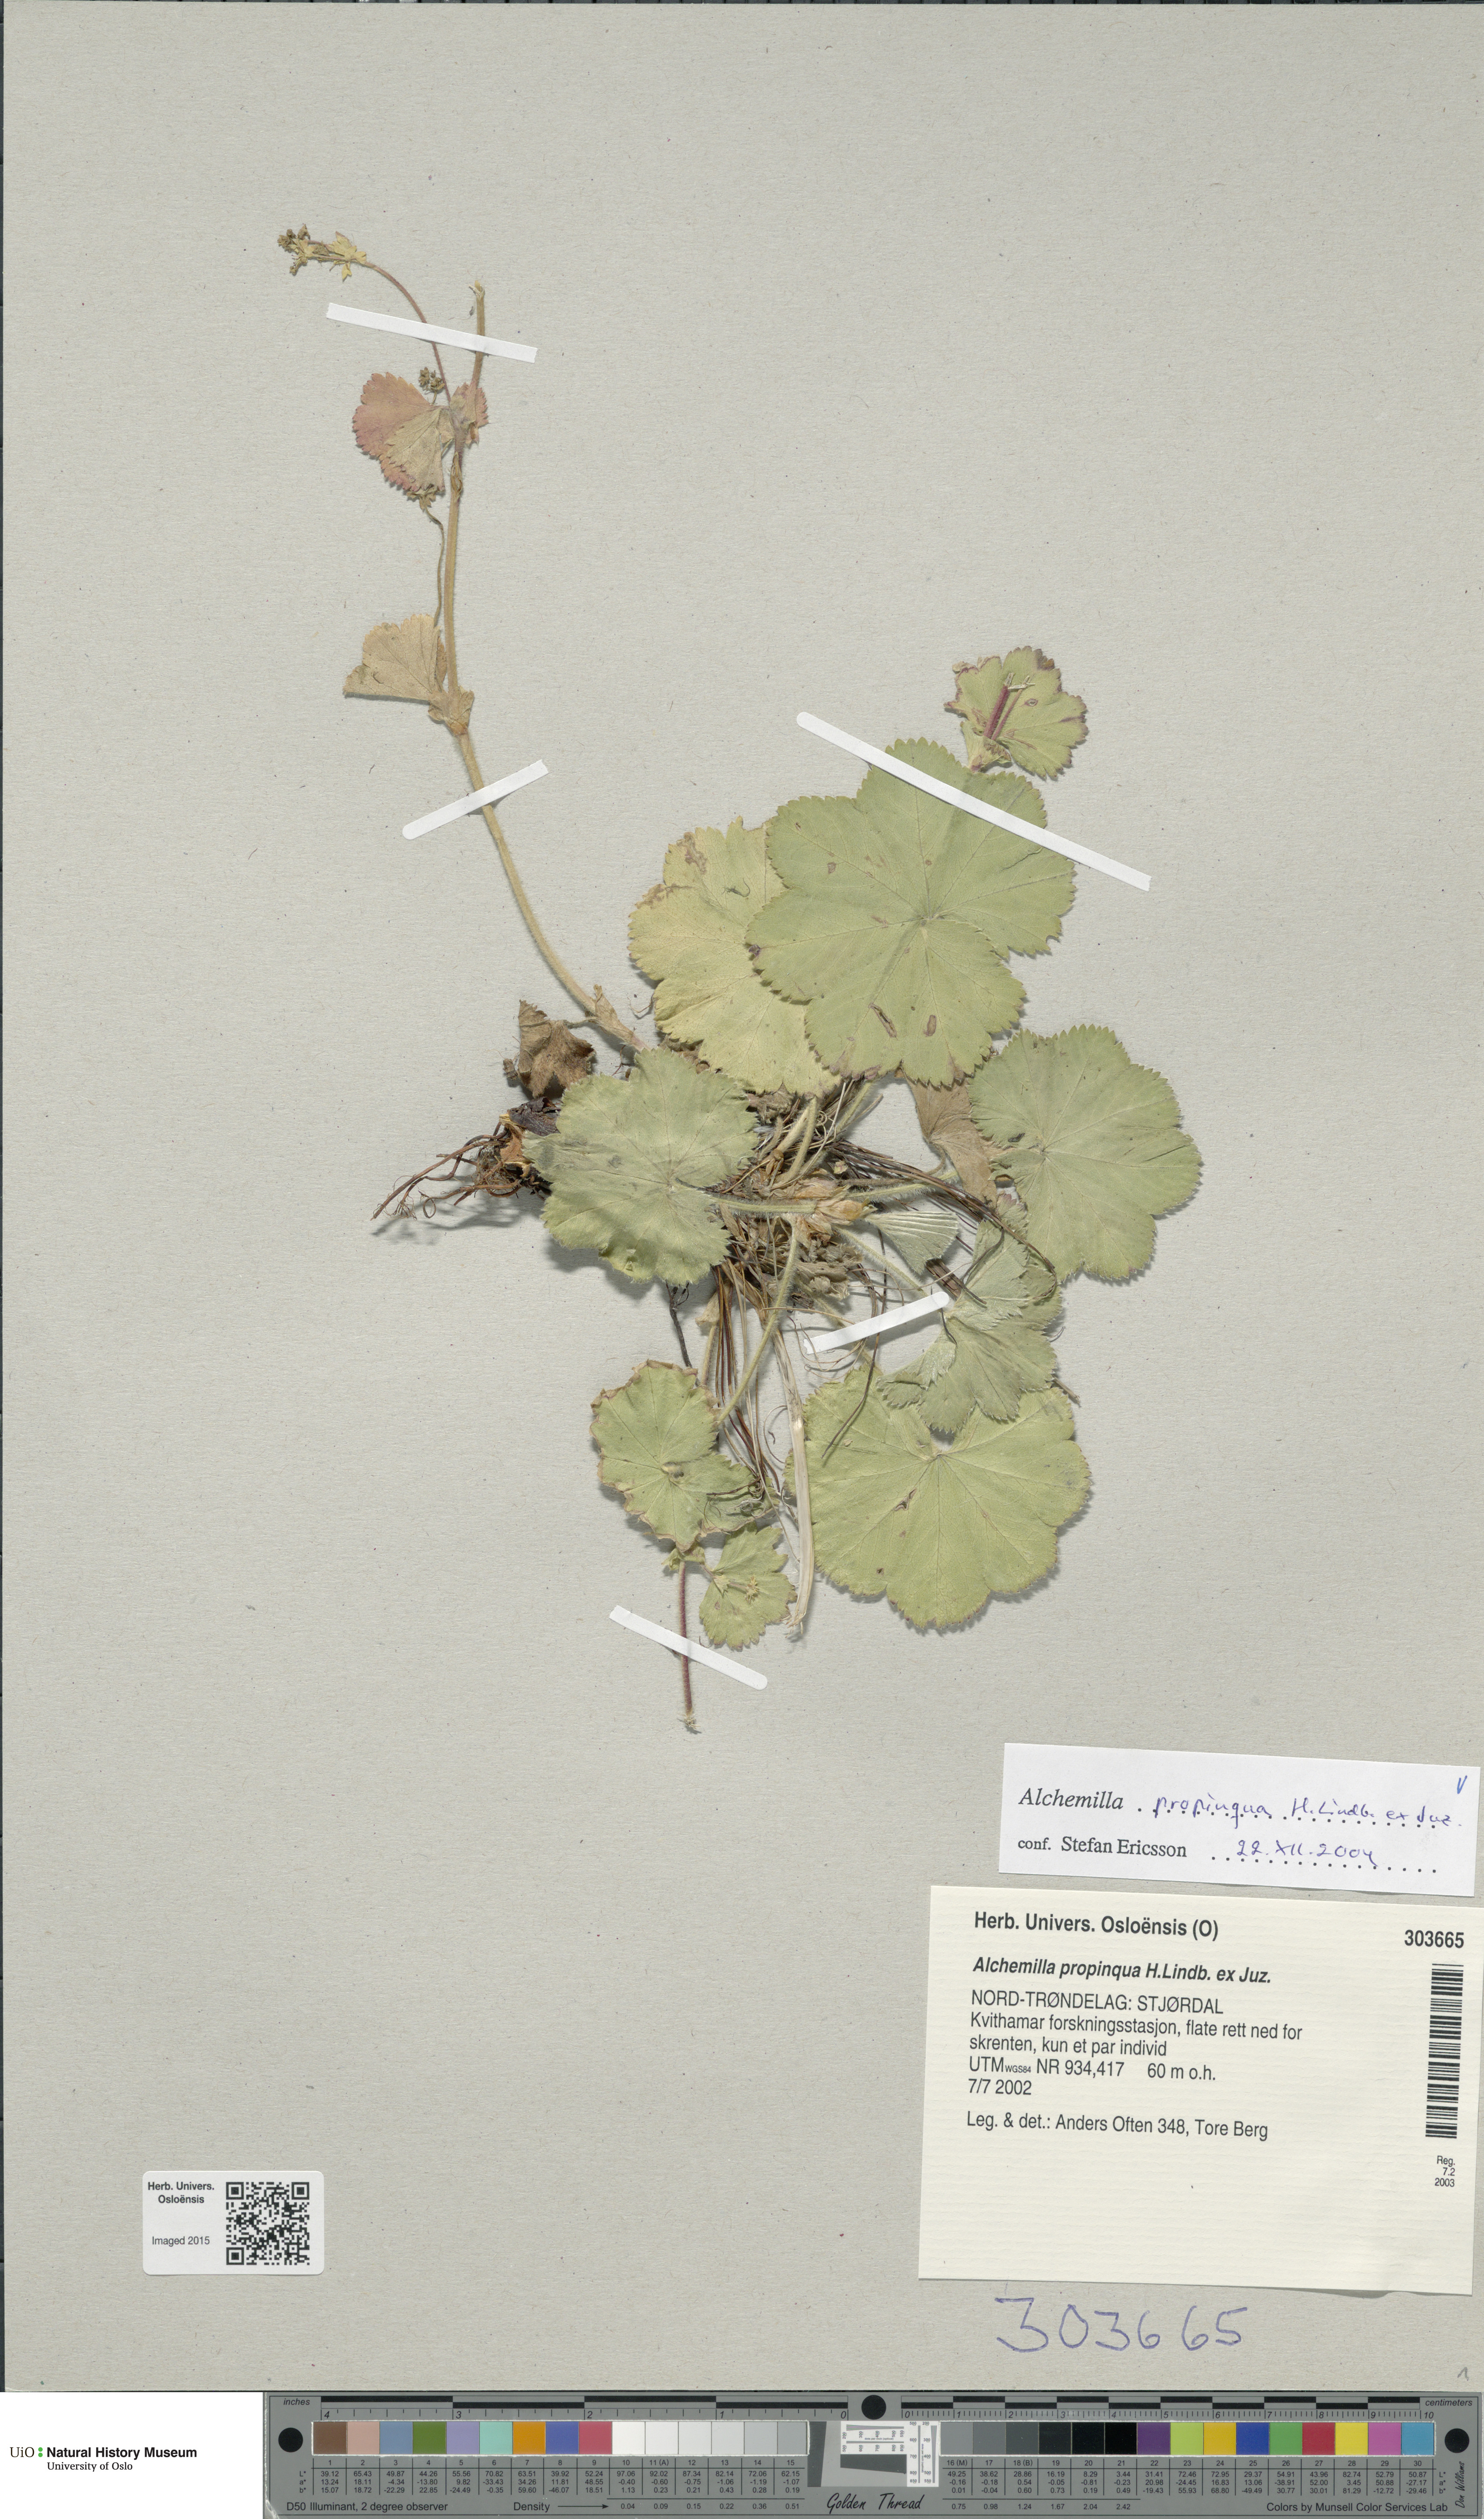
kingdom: Plantae
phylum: Tracheophyta
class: Magnoliopsida
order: Rosales
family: Rosaceae
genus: Alchemilla
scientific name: Alchemilla propinqua
